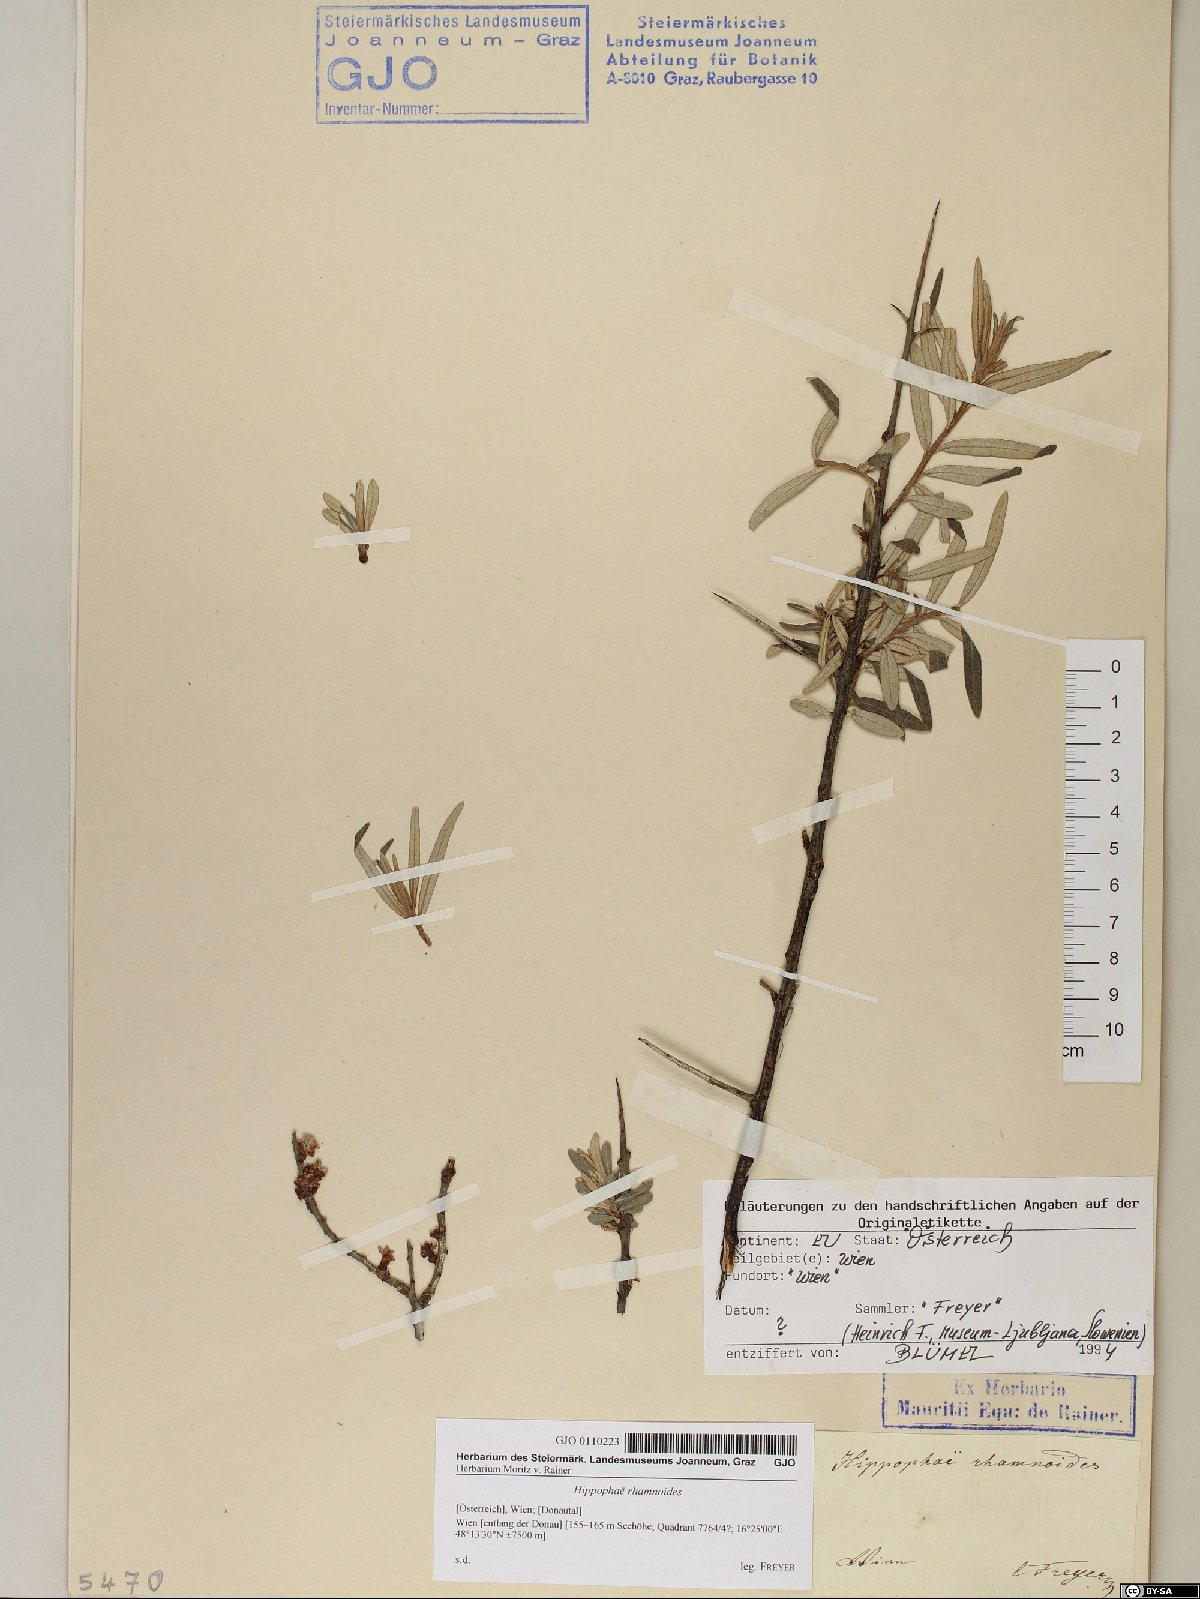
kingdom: Plantae
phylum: Tracheophyta
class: Magnoliopsida
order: Rosales
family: Elaeagnaceae
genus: Hippophae
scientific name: Hippophae rhamnoides
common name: Sea-buckthorn
